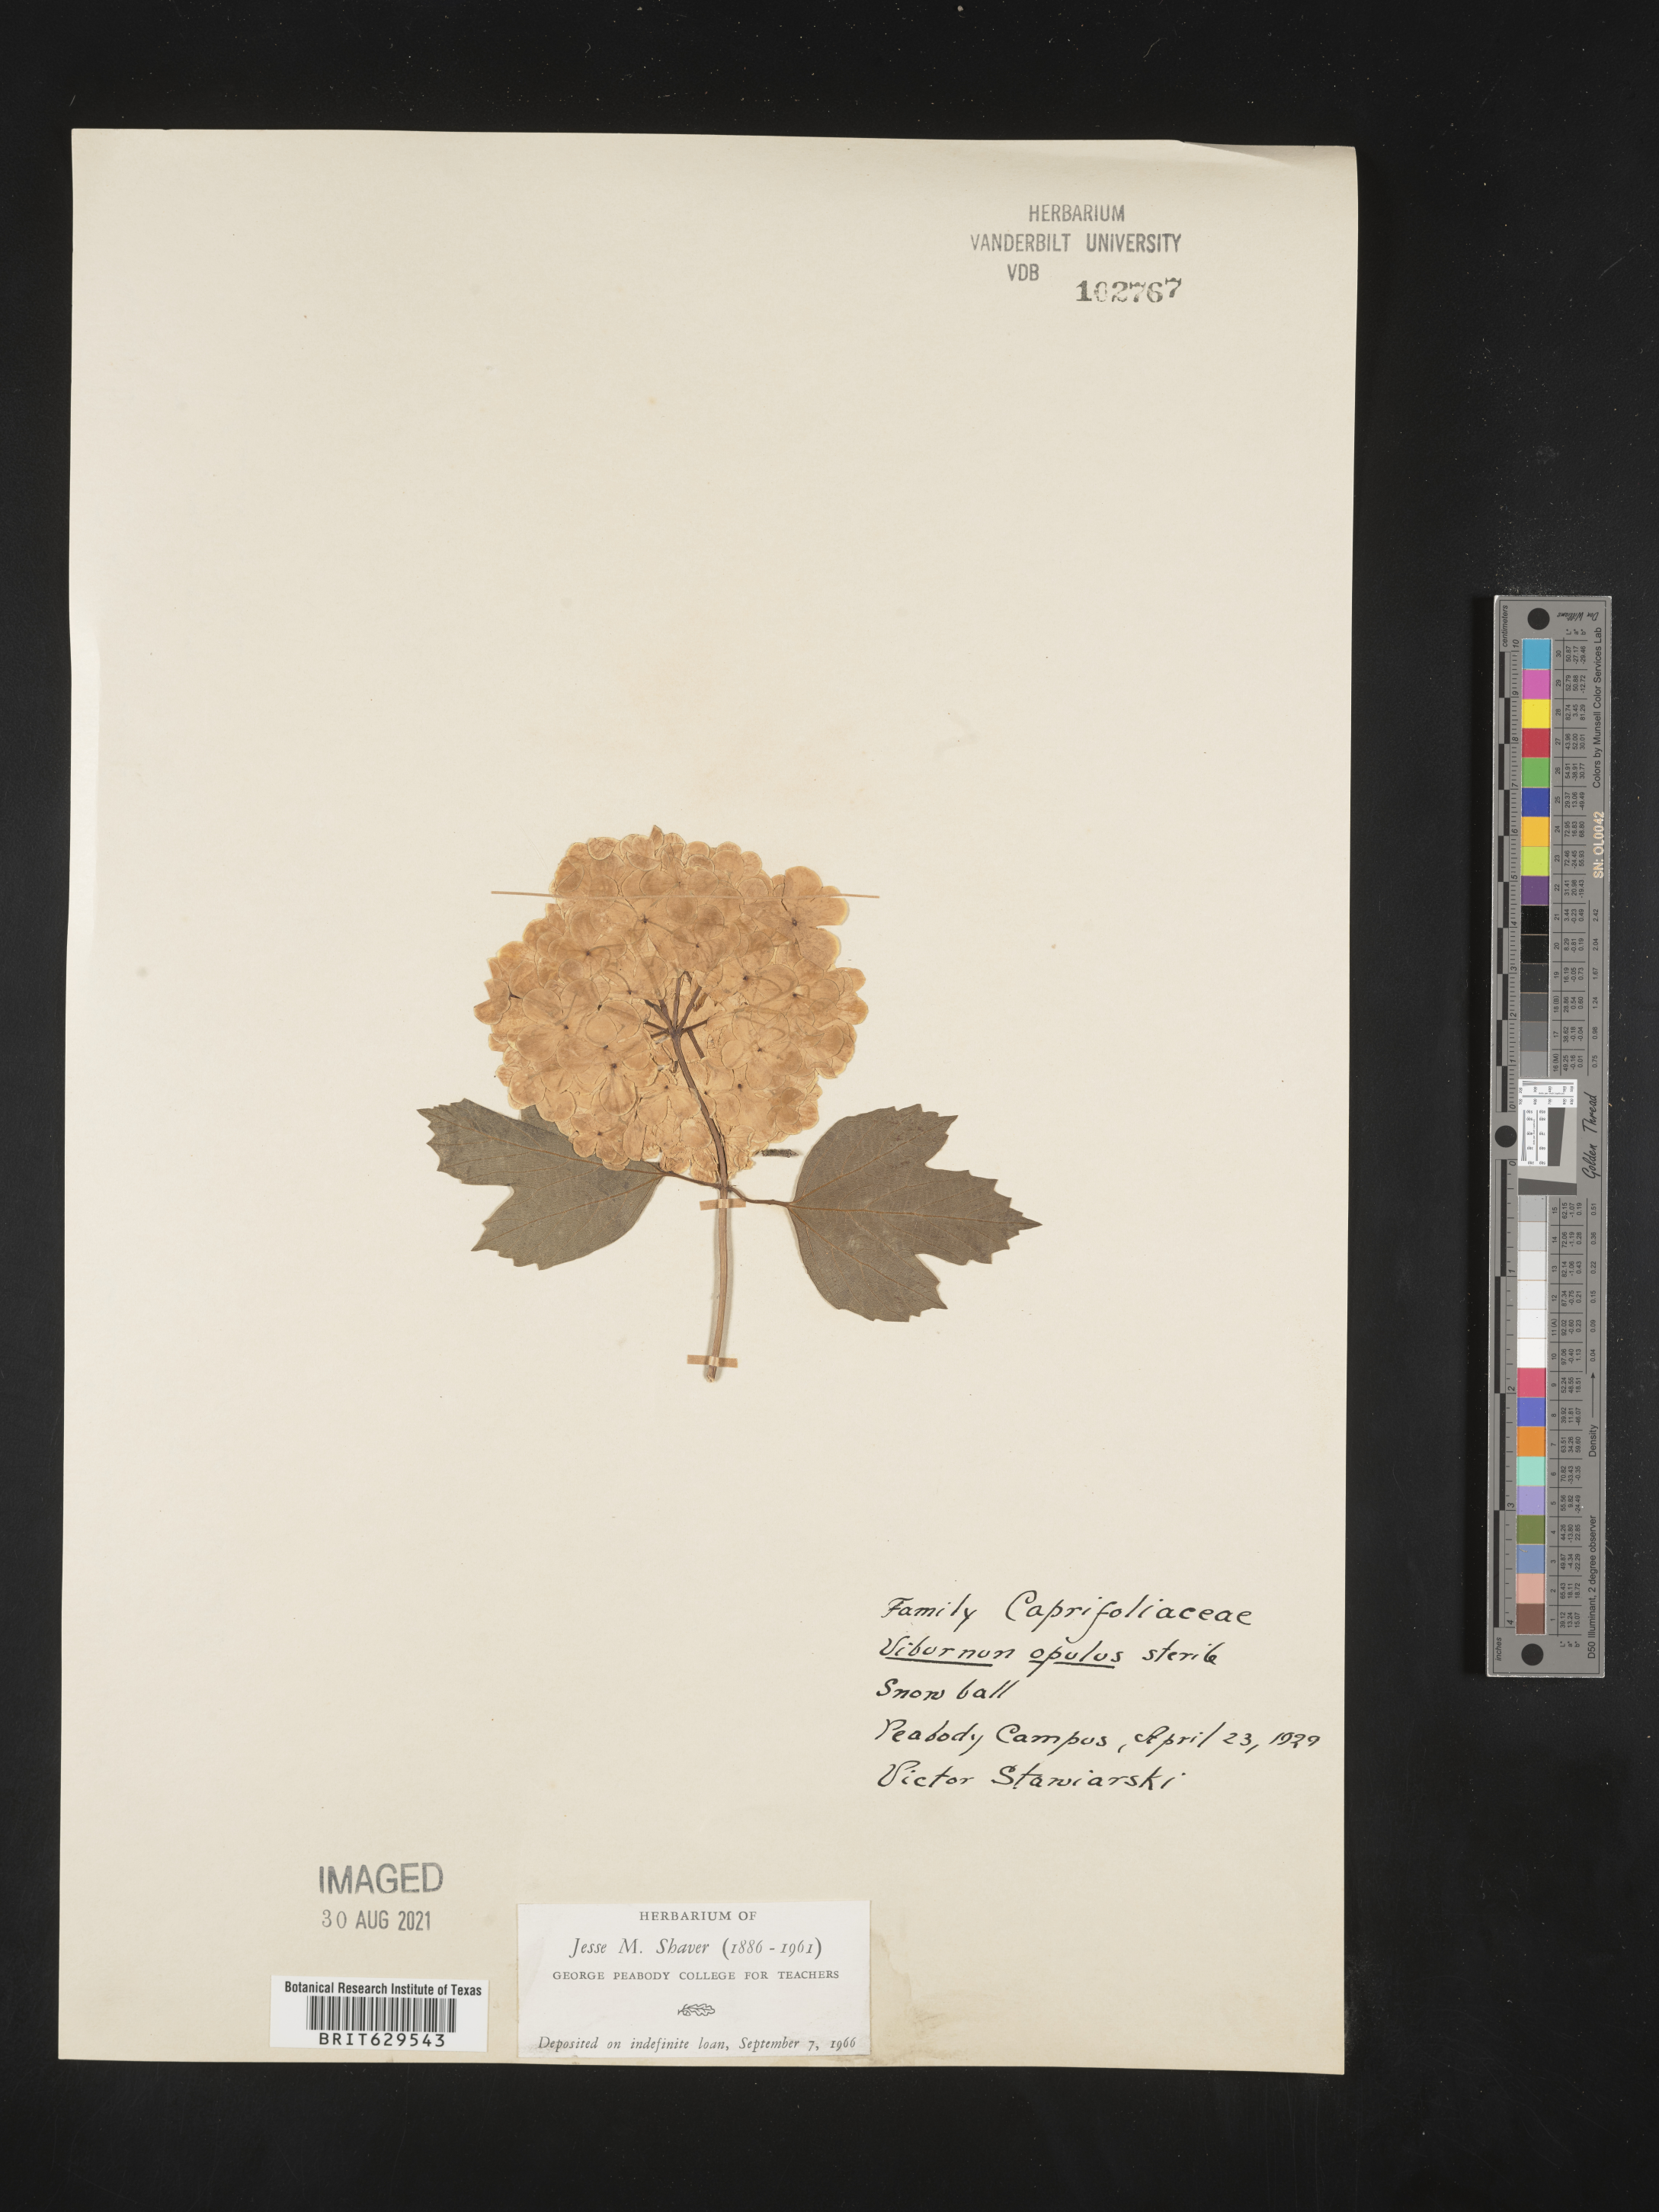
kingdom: Plantae
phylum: Tracheophyta
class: Magnoliopsida
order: Dipsacales
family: Viburnaceae
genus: Viburnum
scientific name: Viburnum opulus
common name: Guelder-rose
